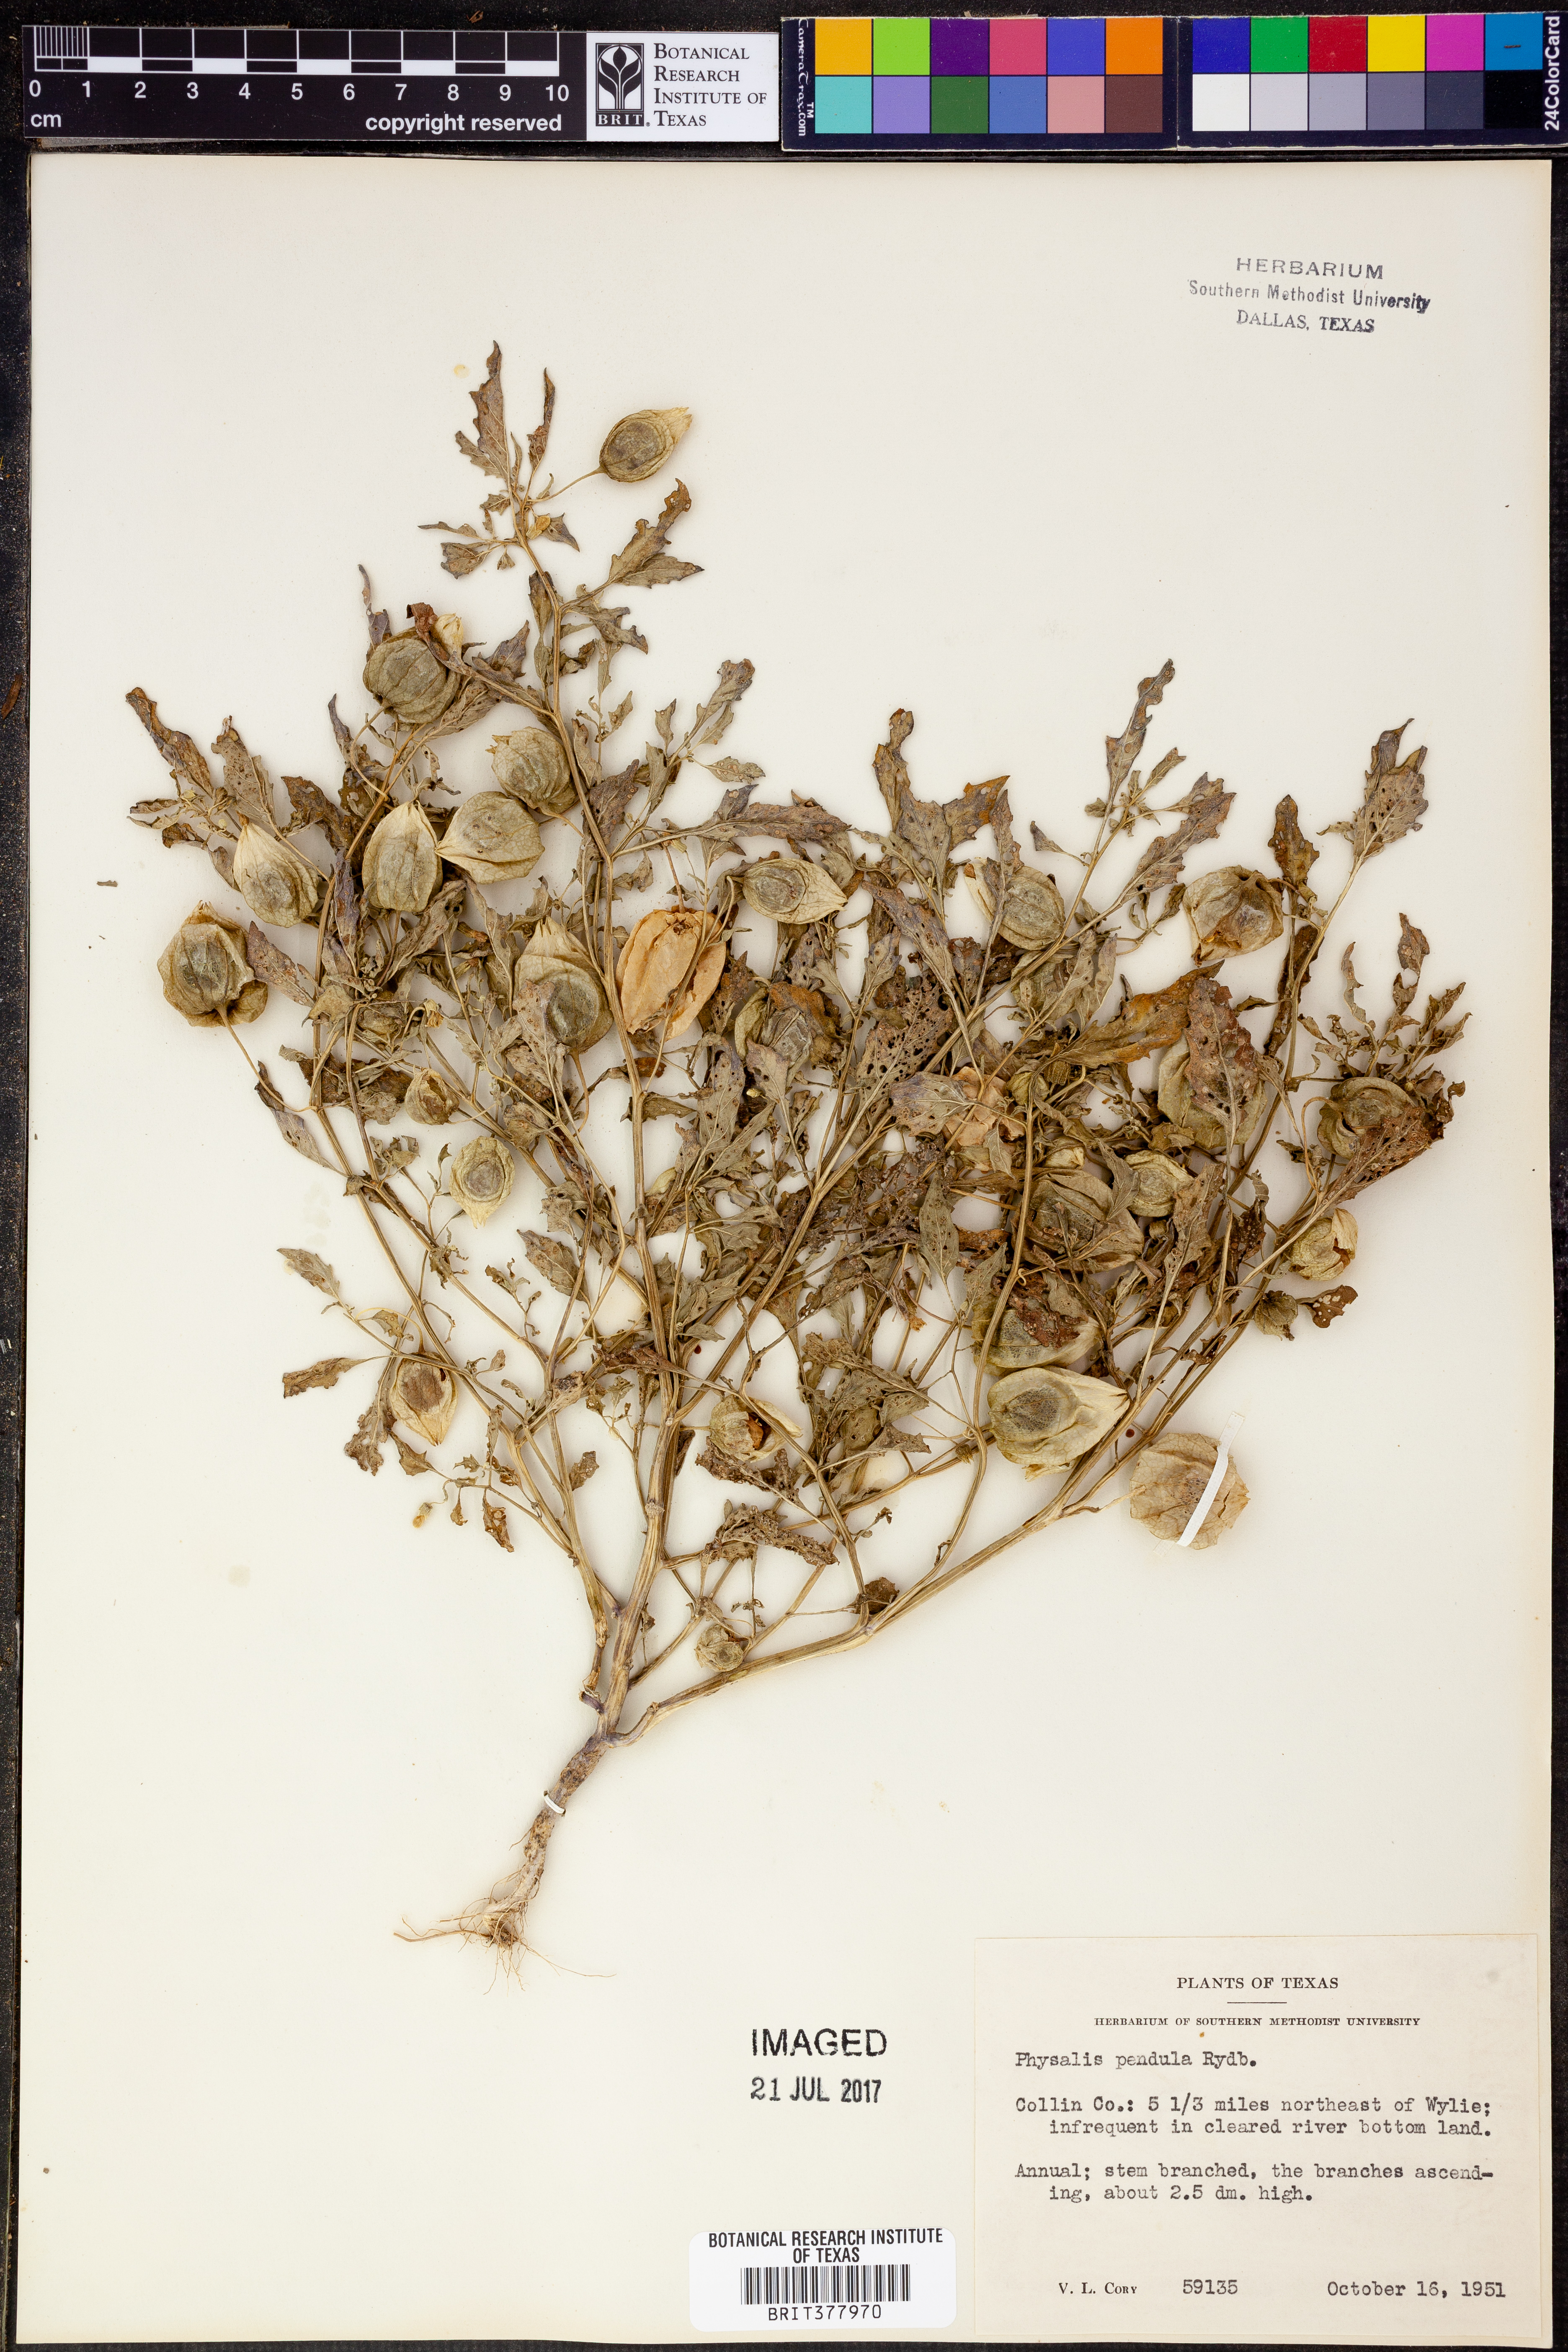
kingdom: Plantae
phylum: Tracheophyta
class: Magnoliopsida
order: Solanales
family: Solanaceae
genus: Physalis
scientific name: Physalis angulata
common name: Angular winter-cherry
